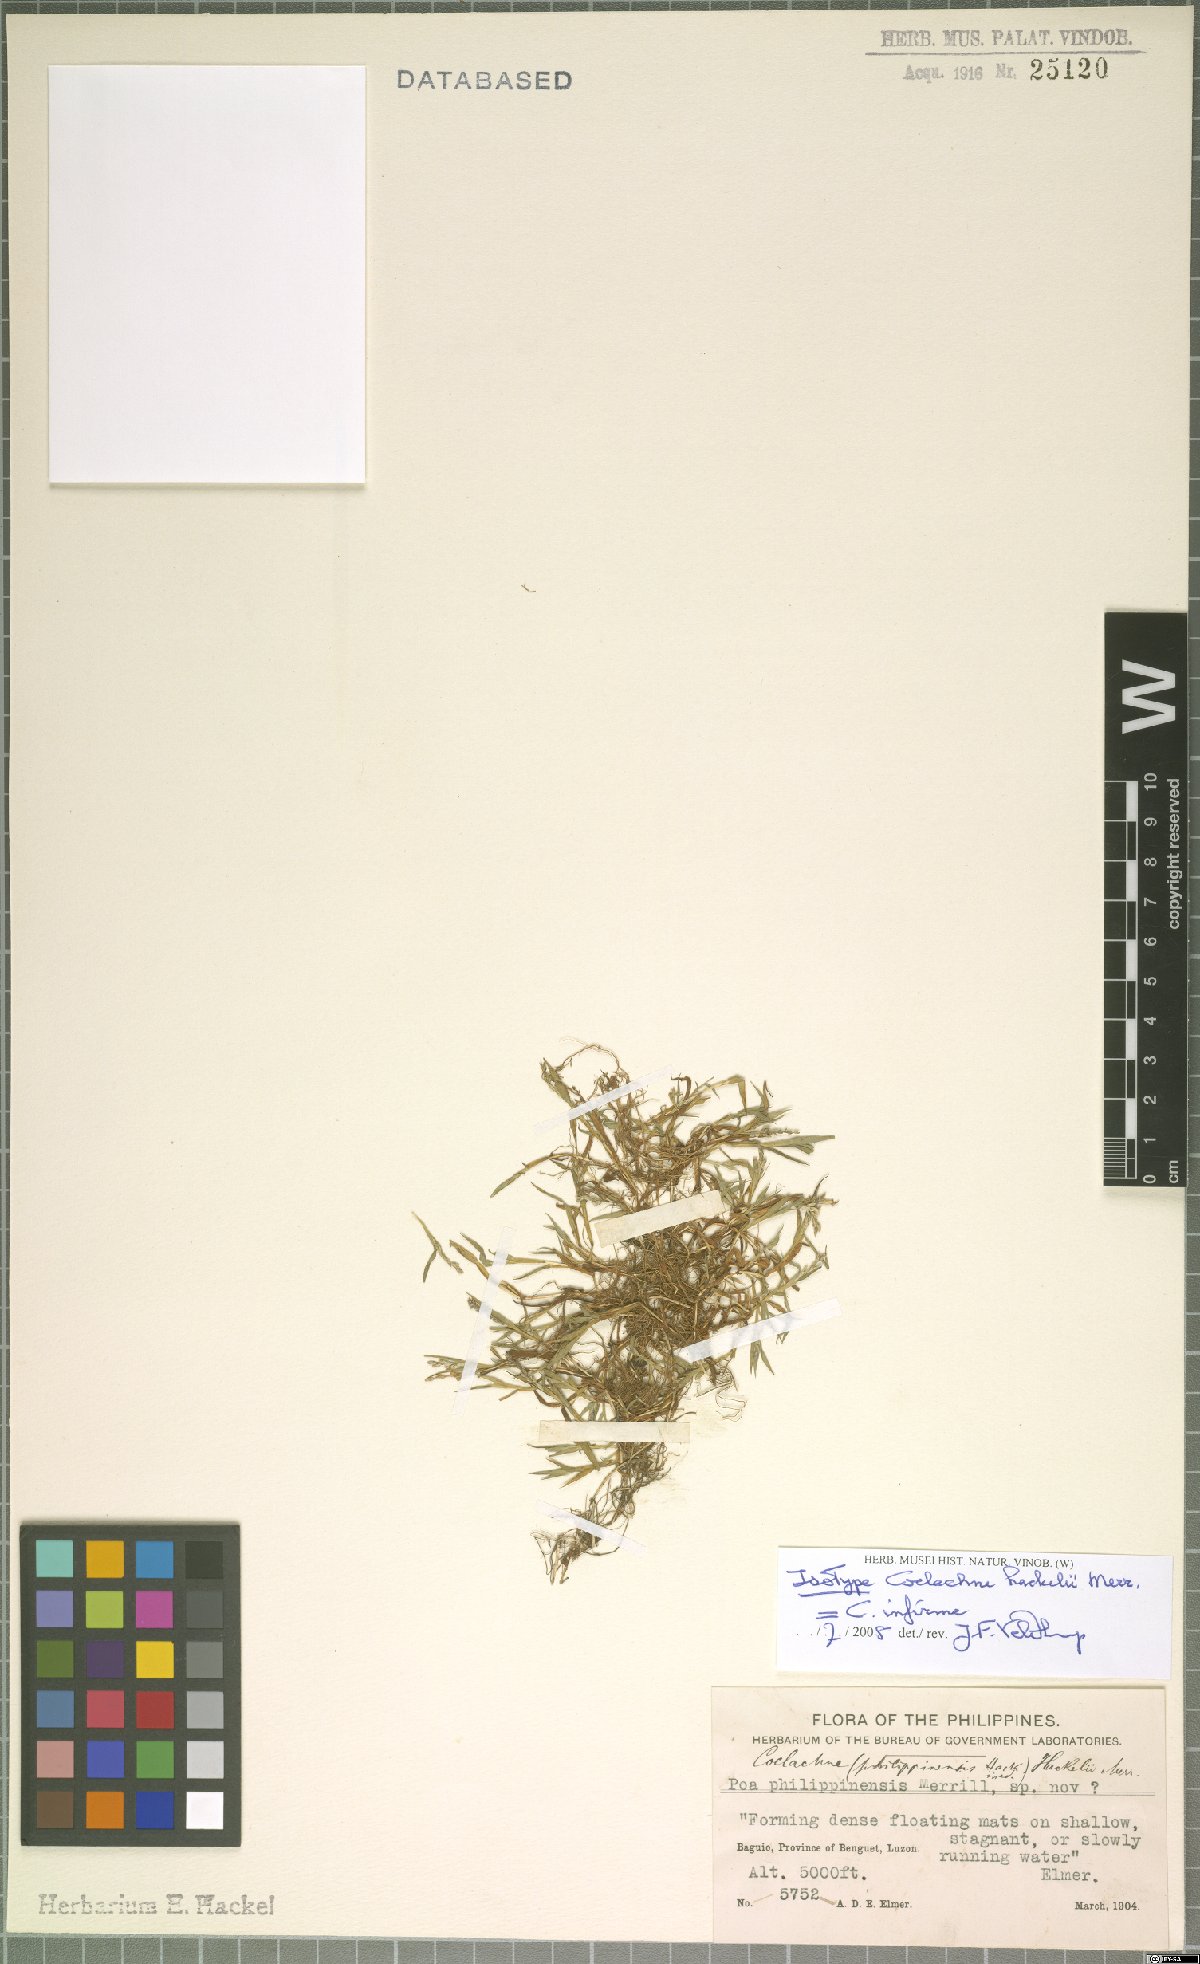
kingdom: Plantae
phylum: Tracheophyta
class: Liliopsida
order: Poales
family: Poaceae
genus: Coelachne
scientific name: Coelachne infirma
